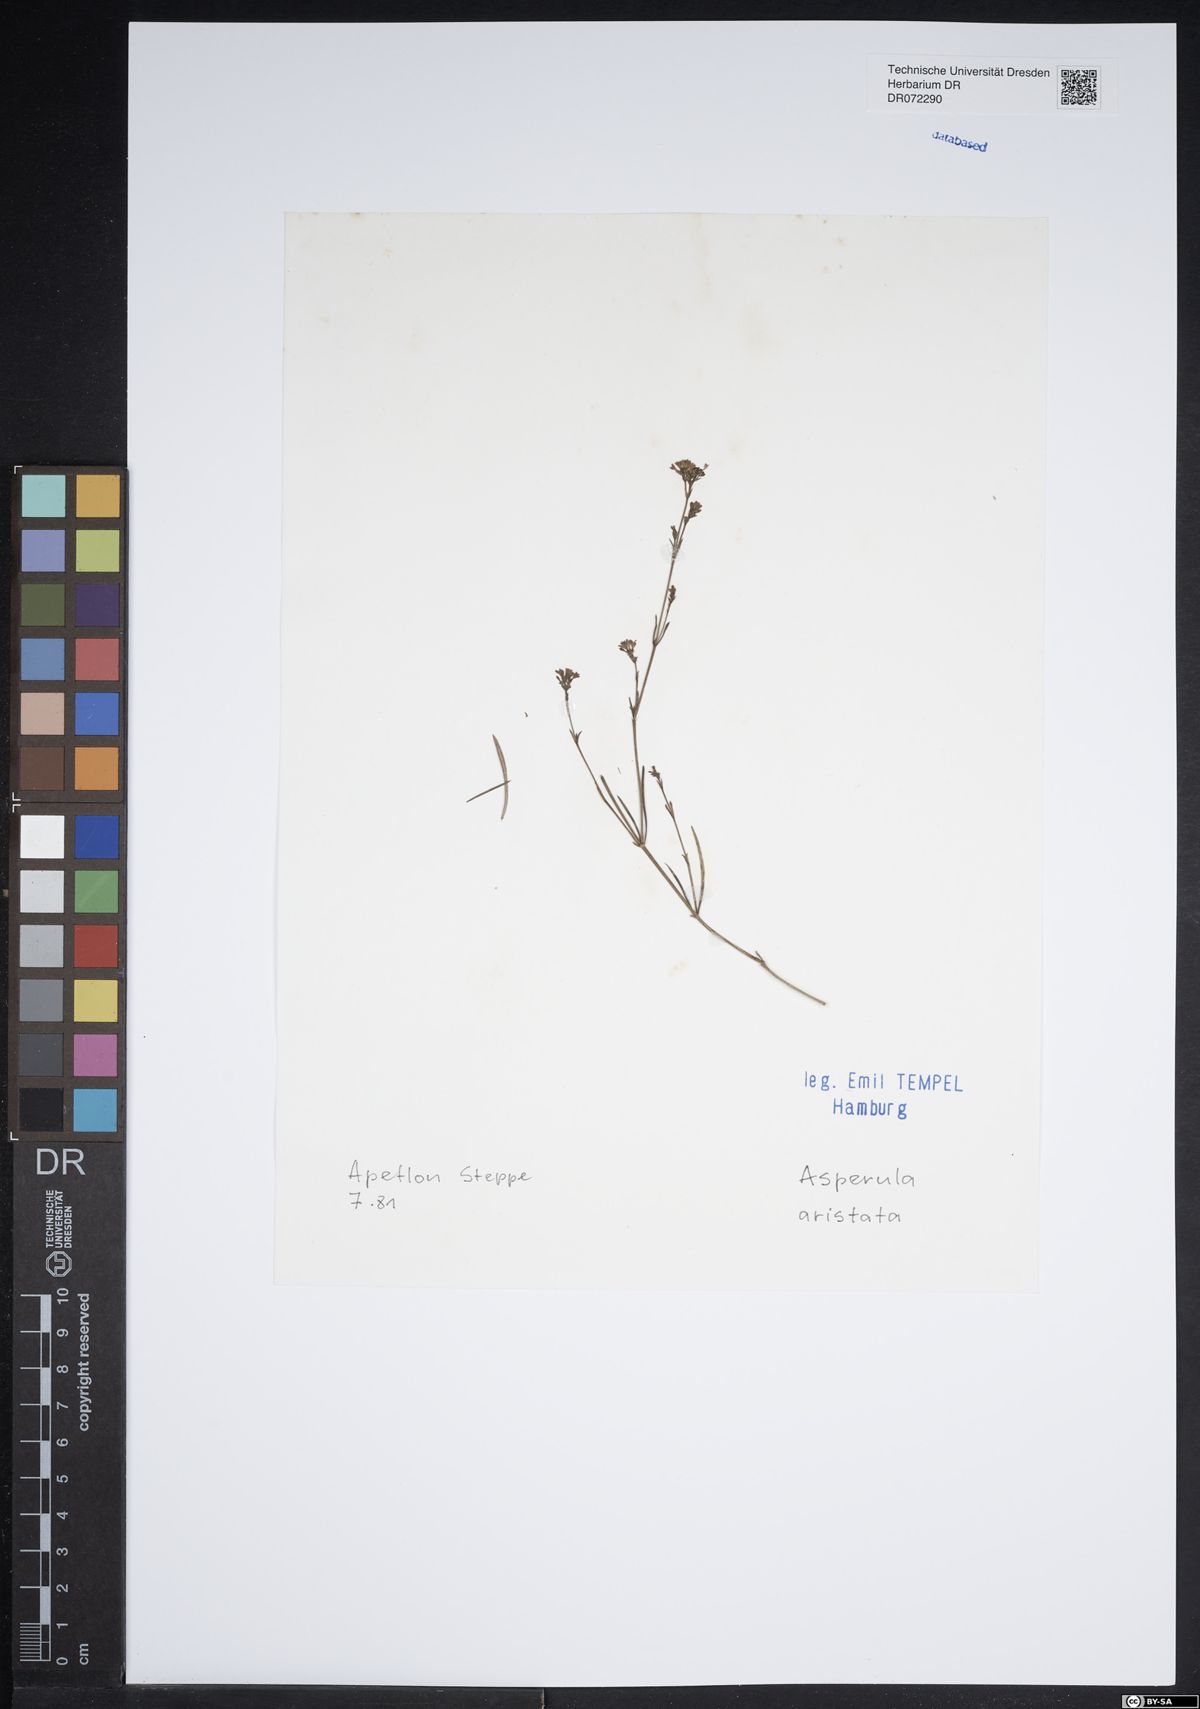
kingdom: Plantae
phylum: Tracheophyta
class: Magnoliopsida
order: Gentianales
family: Rubiaceae
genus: Cynanchica
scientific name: Cynanchica aristata
